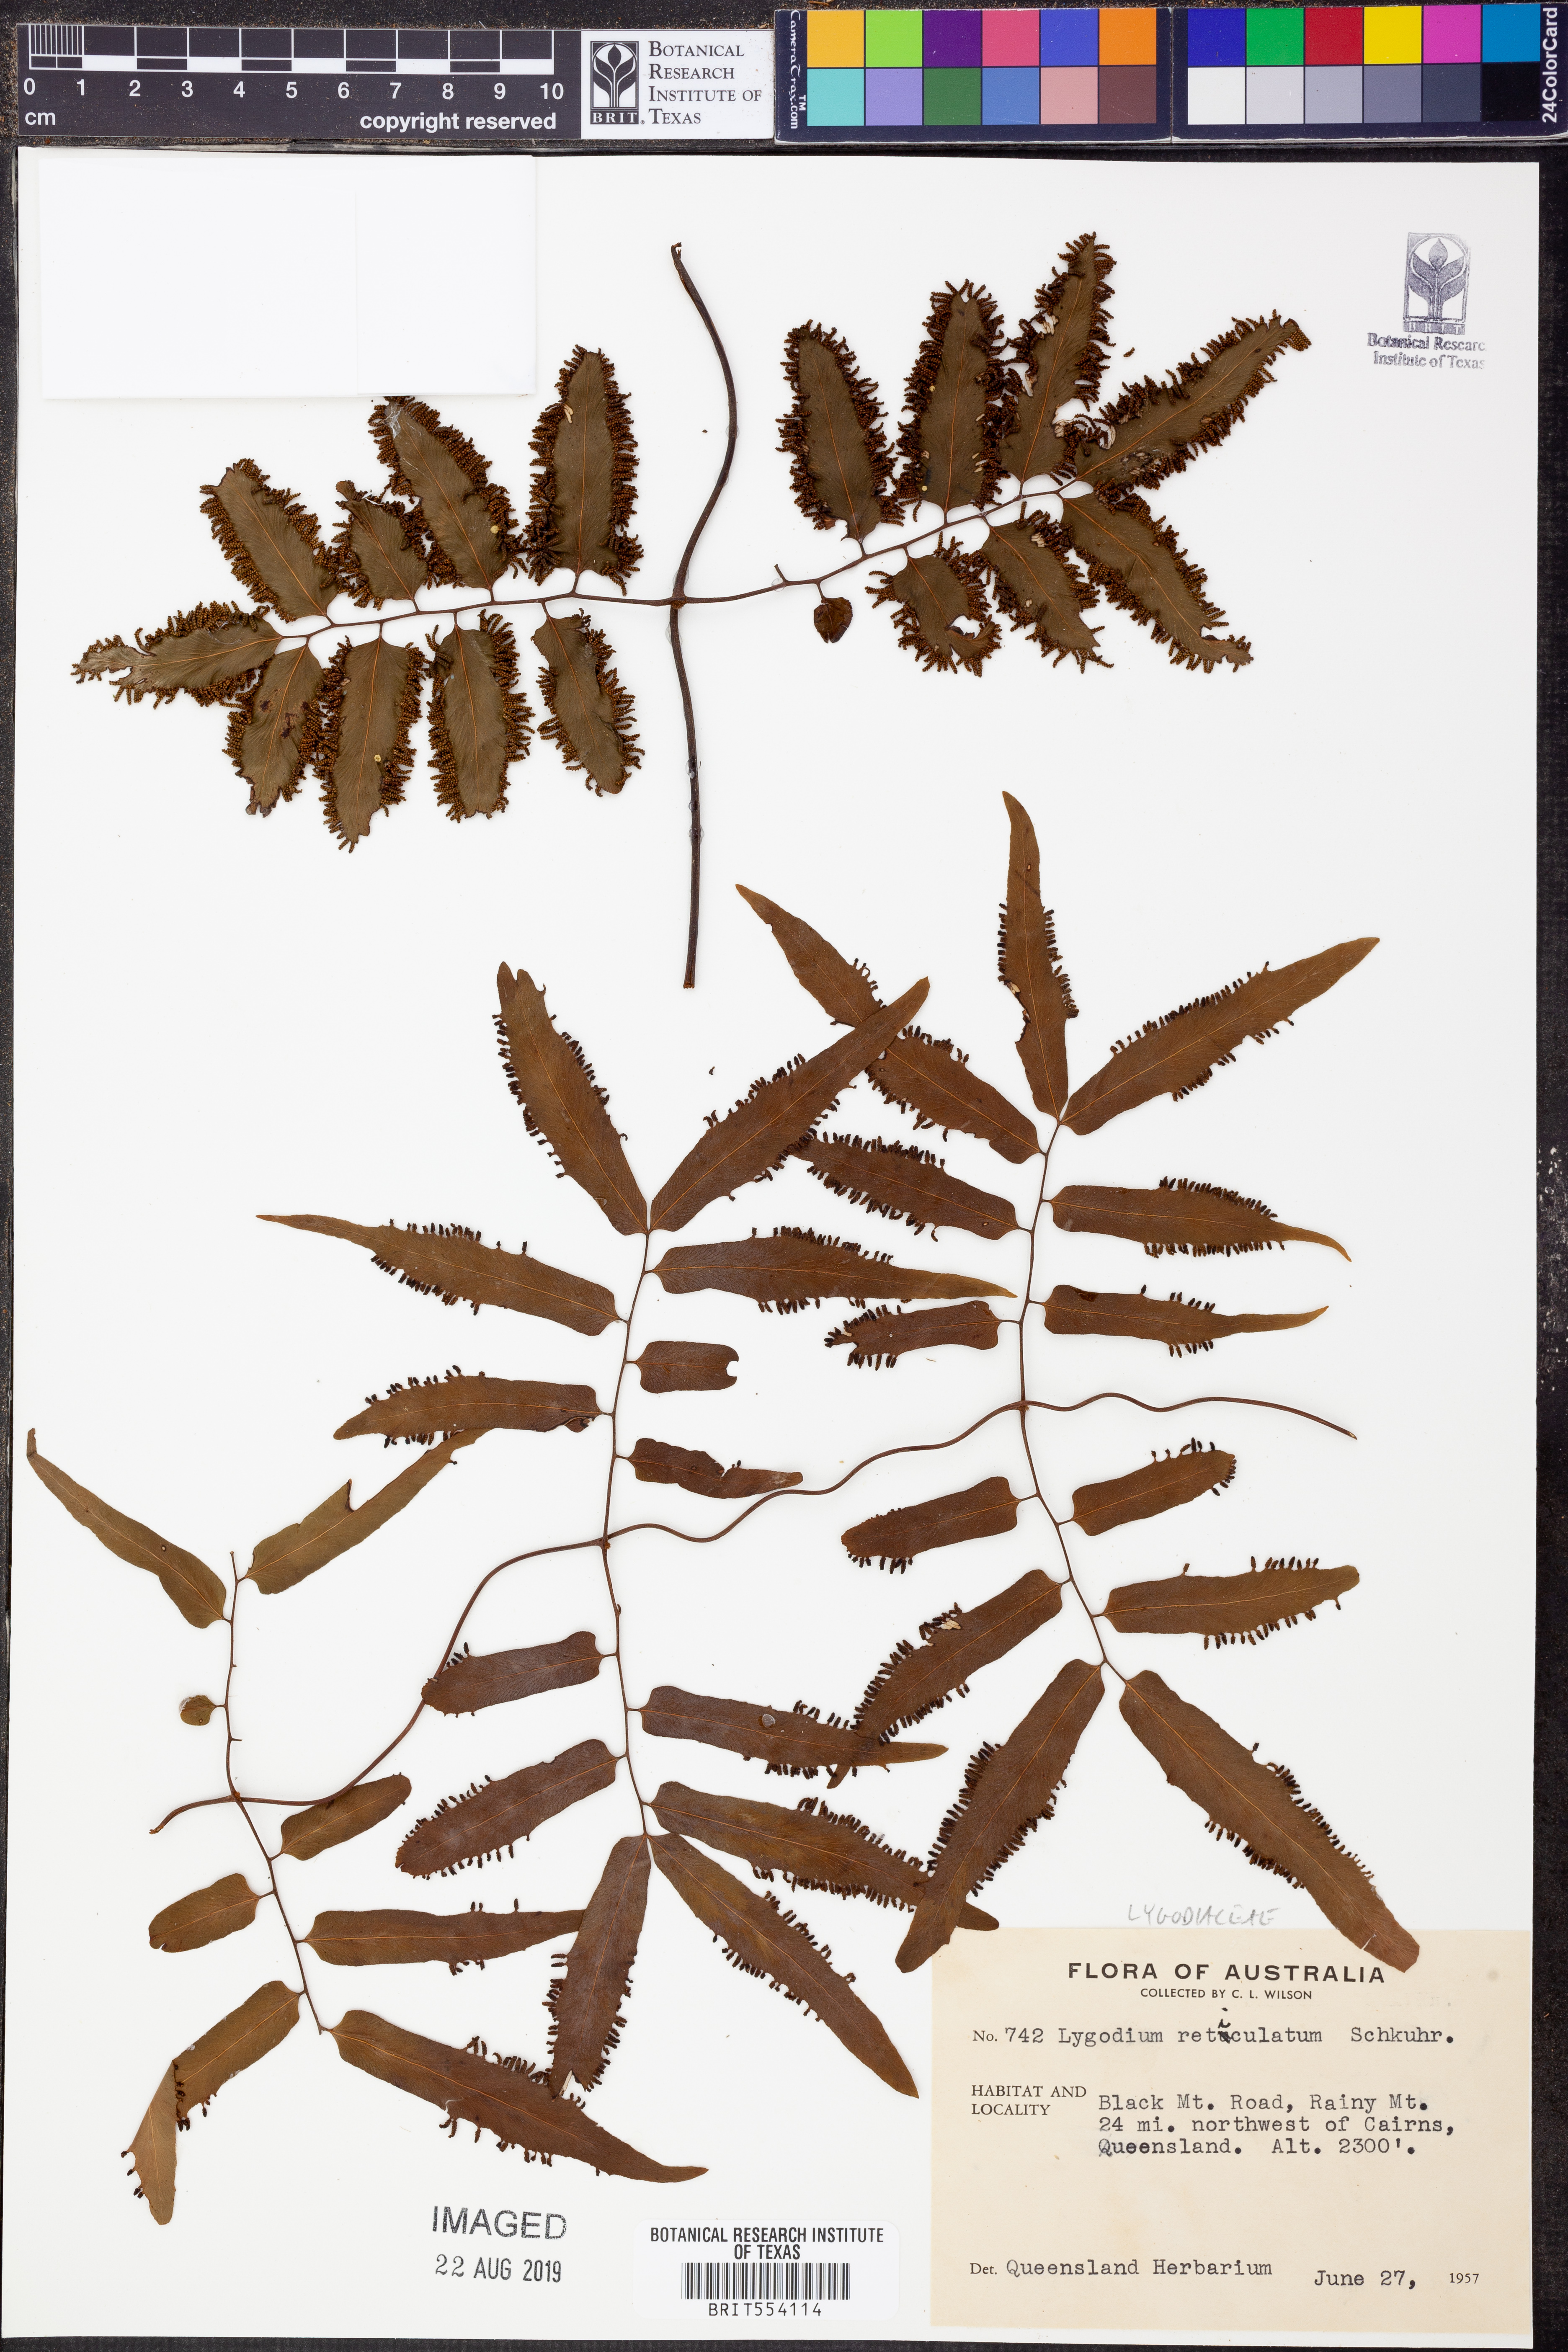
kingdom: Plantae
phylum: Tracheophyta
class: Polypodiopsida
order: Schizaeales
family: Lygodiaceae
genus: Lygodium
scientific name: Lygodium reticulatum
